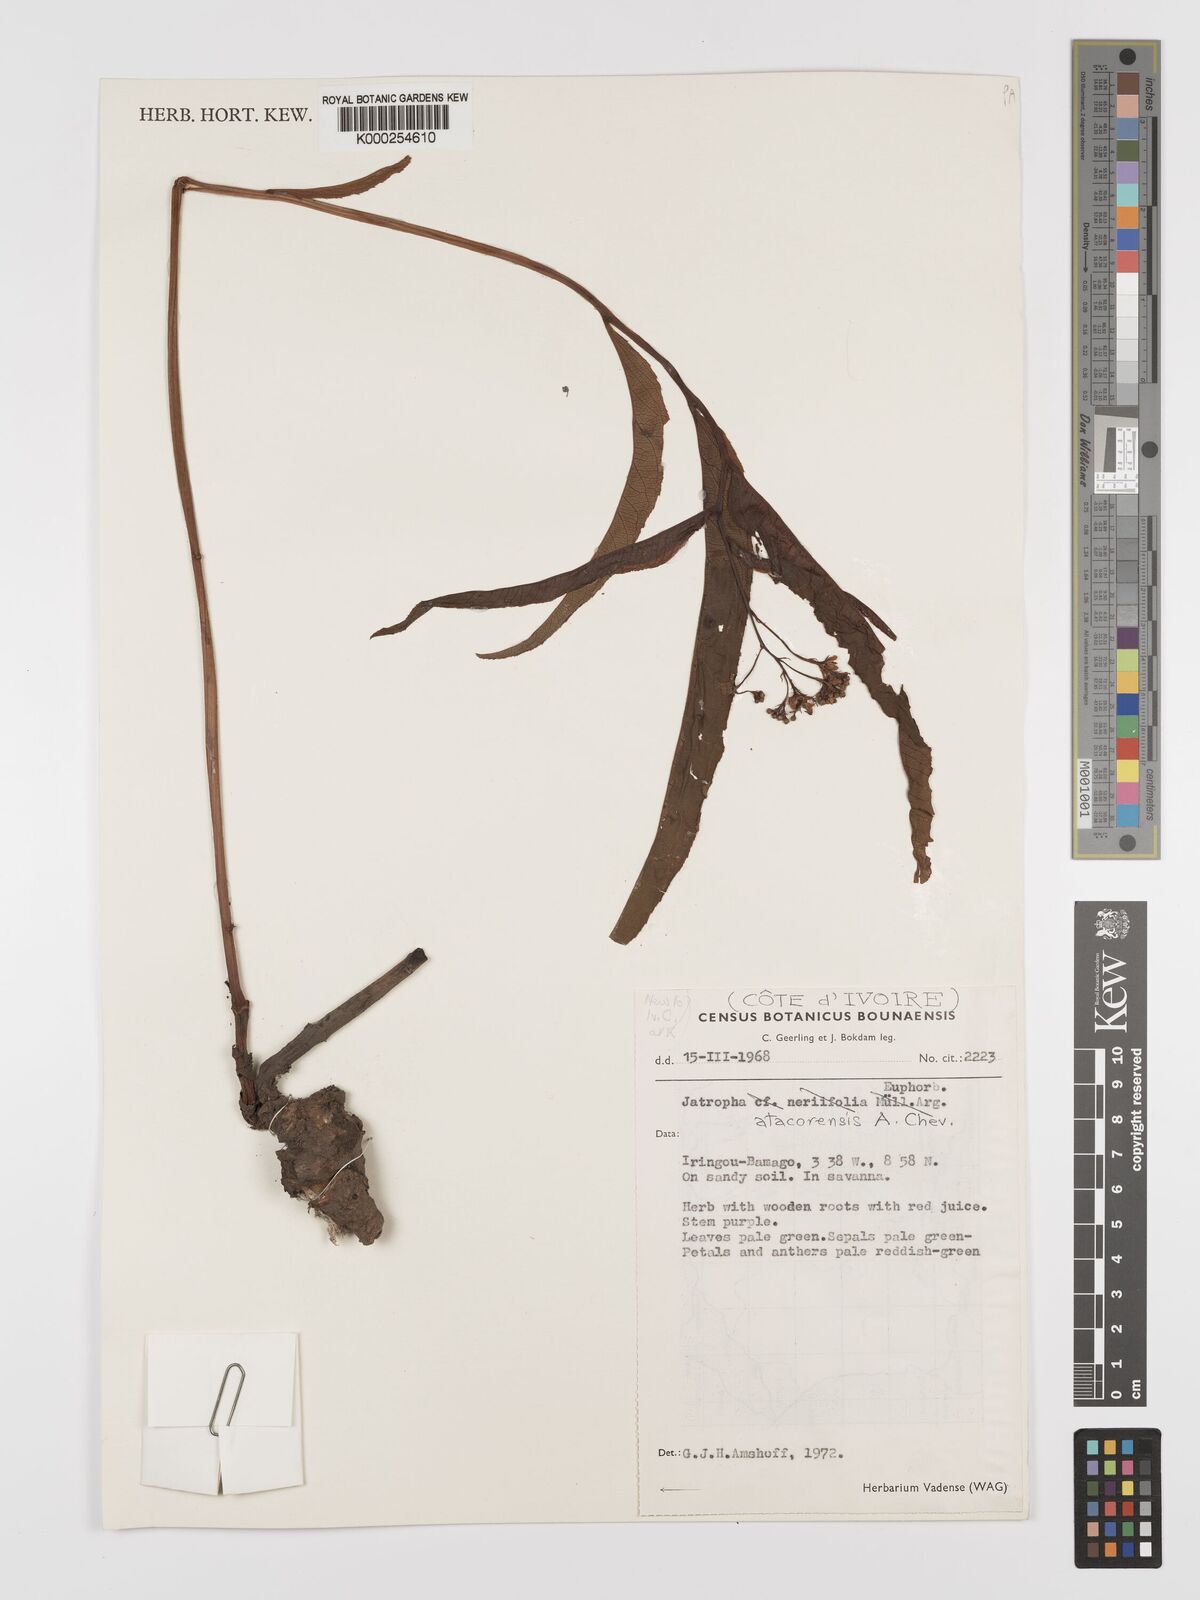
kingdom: Plantae
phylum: Tracheophyta
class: Magnoliopsida
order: Malpighiales
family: Euphorbiaceae
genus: Jatropha
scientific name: Jatropha atacorensis
